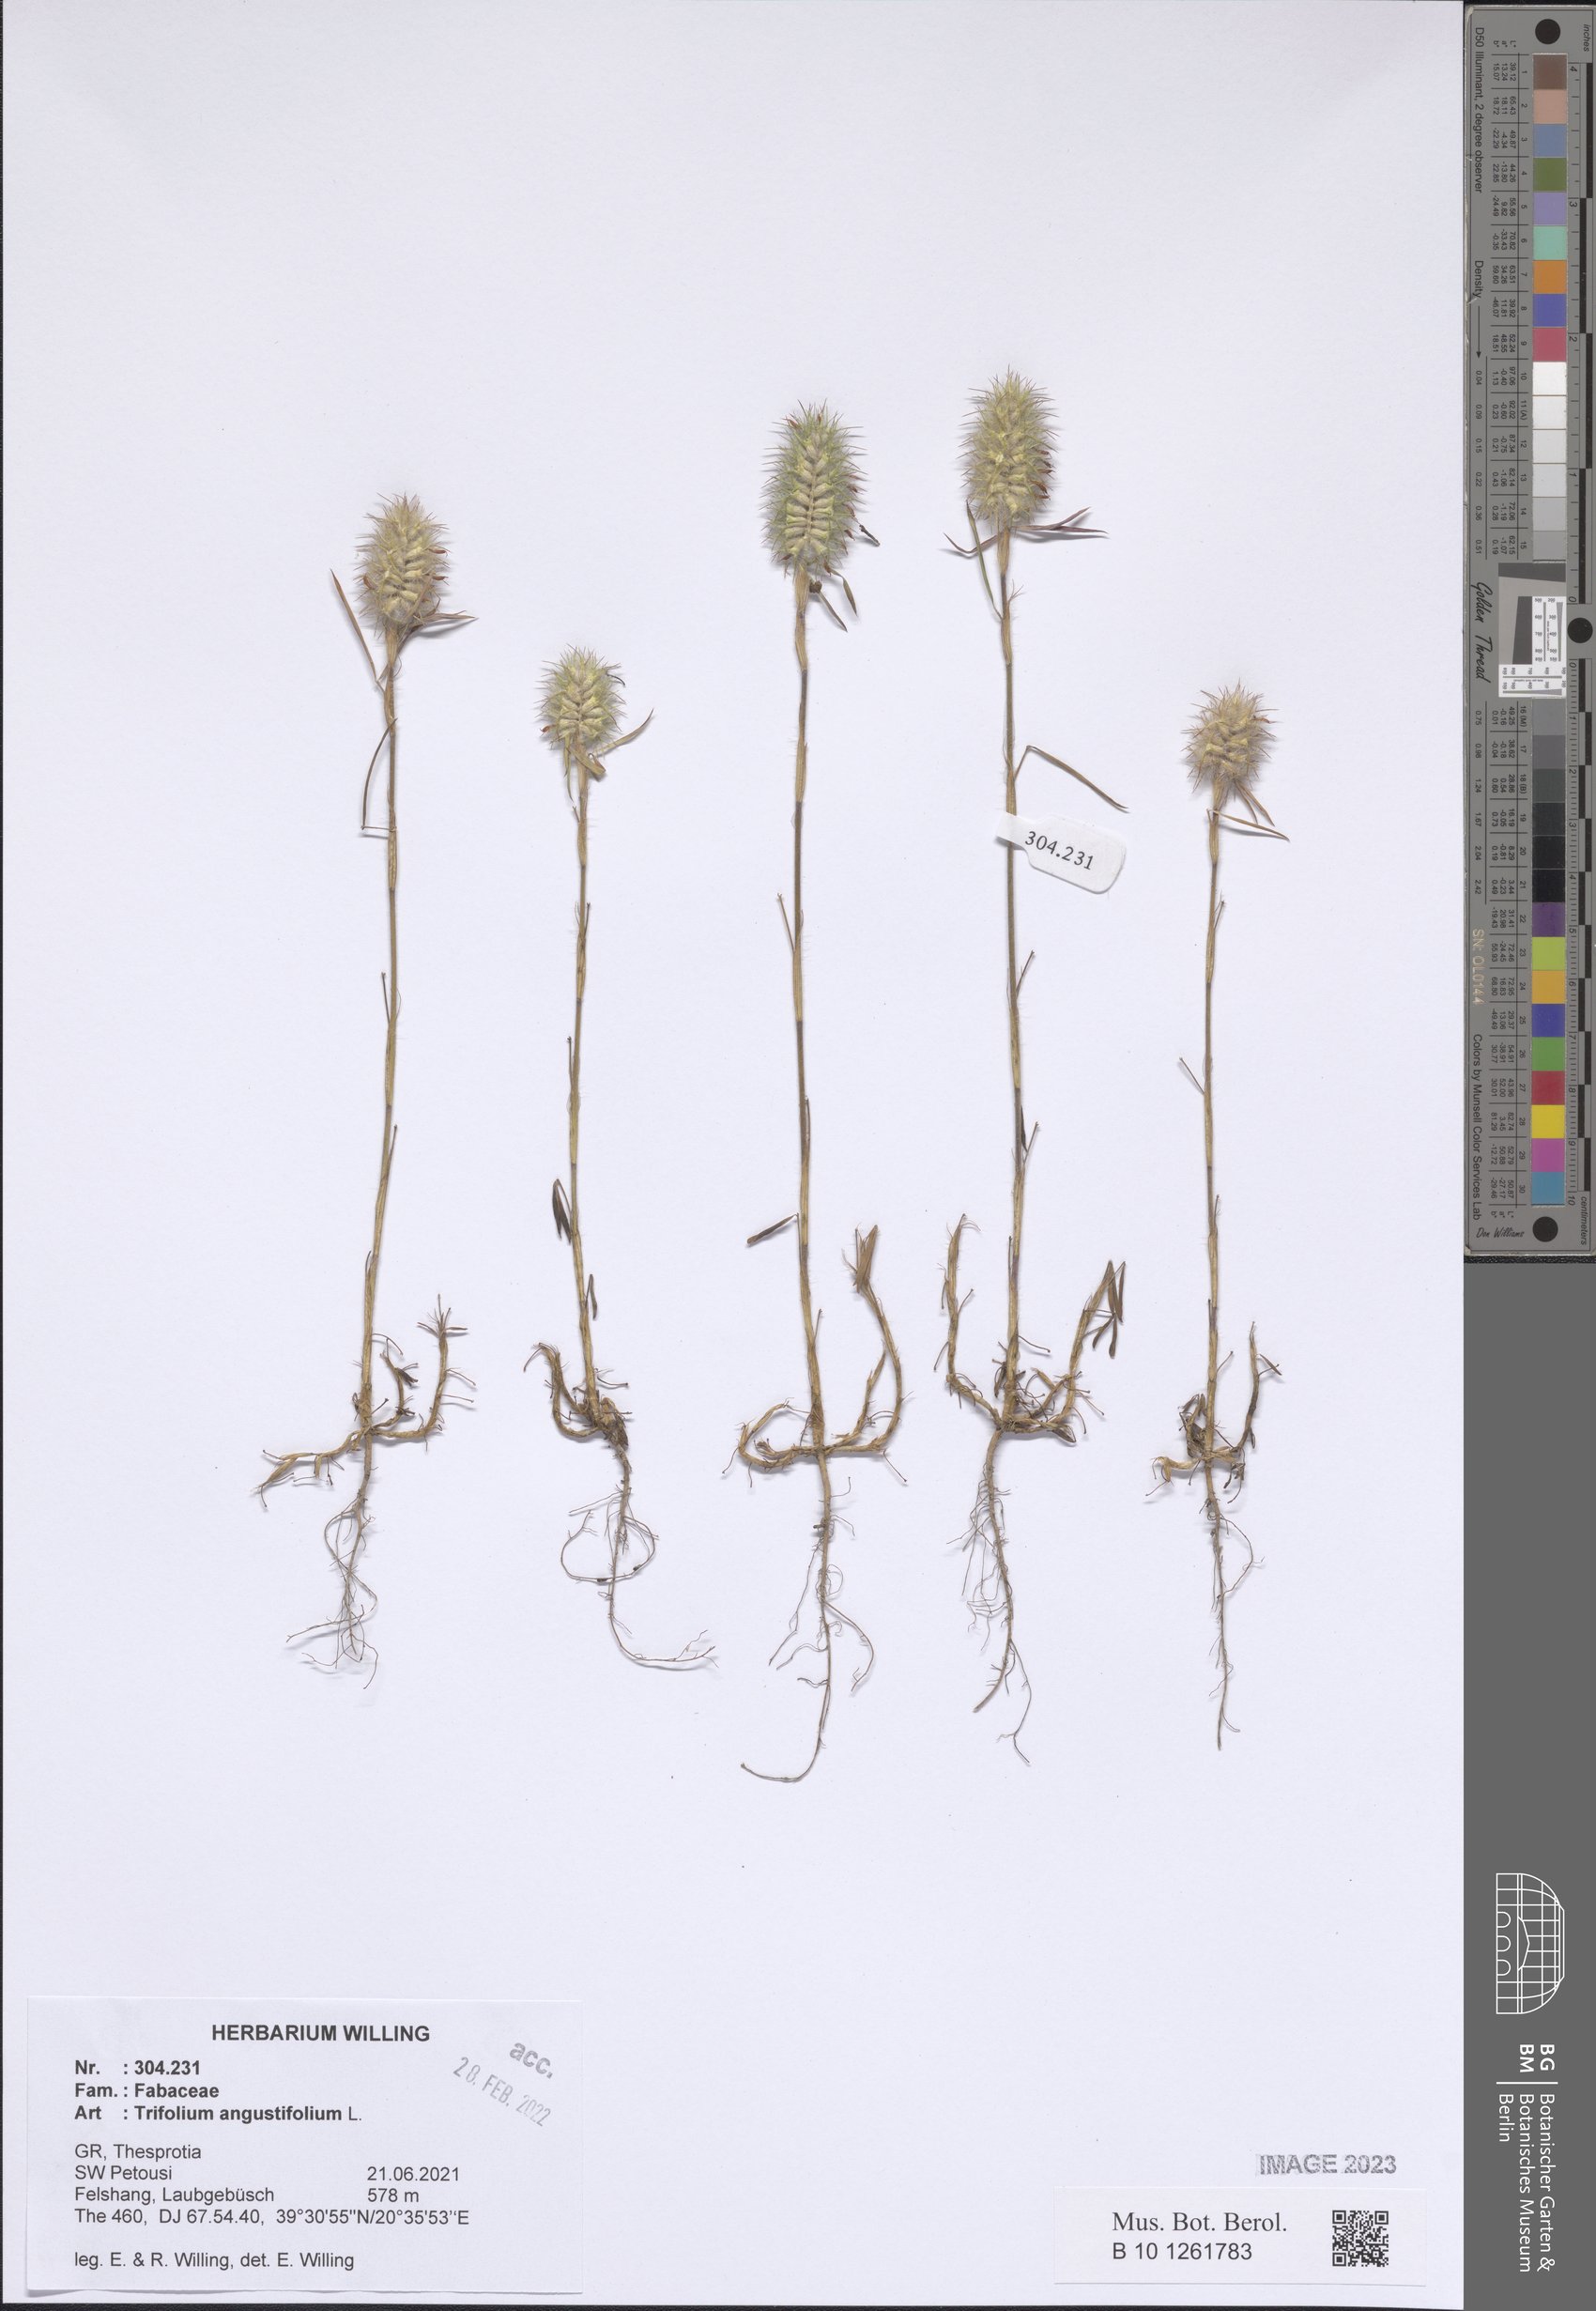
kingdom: Plantae
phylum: Tracheophyta
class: Magnoliopsida
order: Fabales
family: Fabaceae
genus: Trifolium
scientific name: Trifolium angustifolium
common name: Narrow clover
